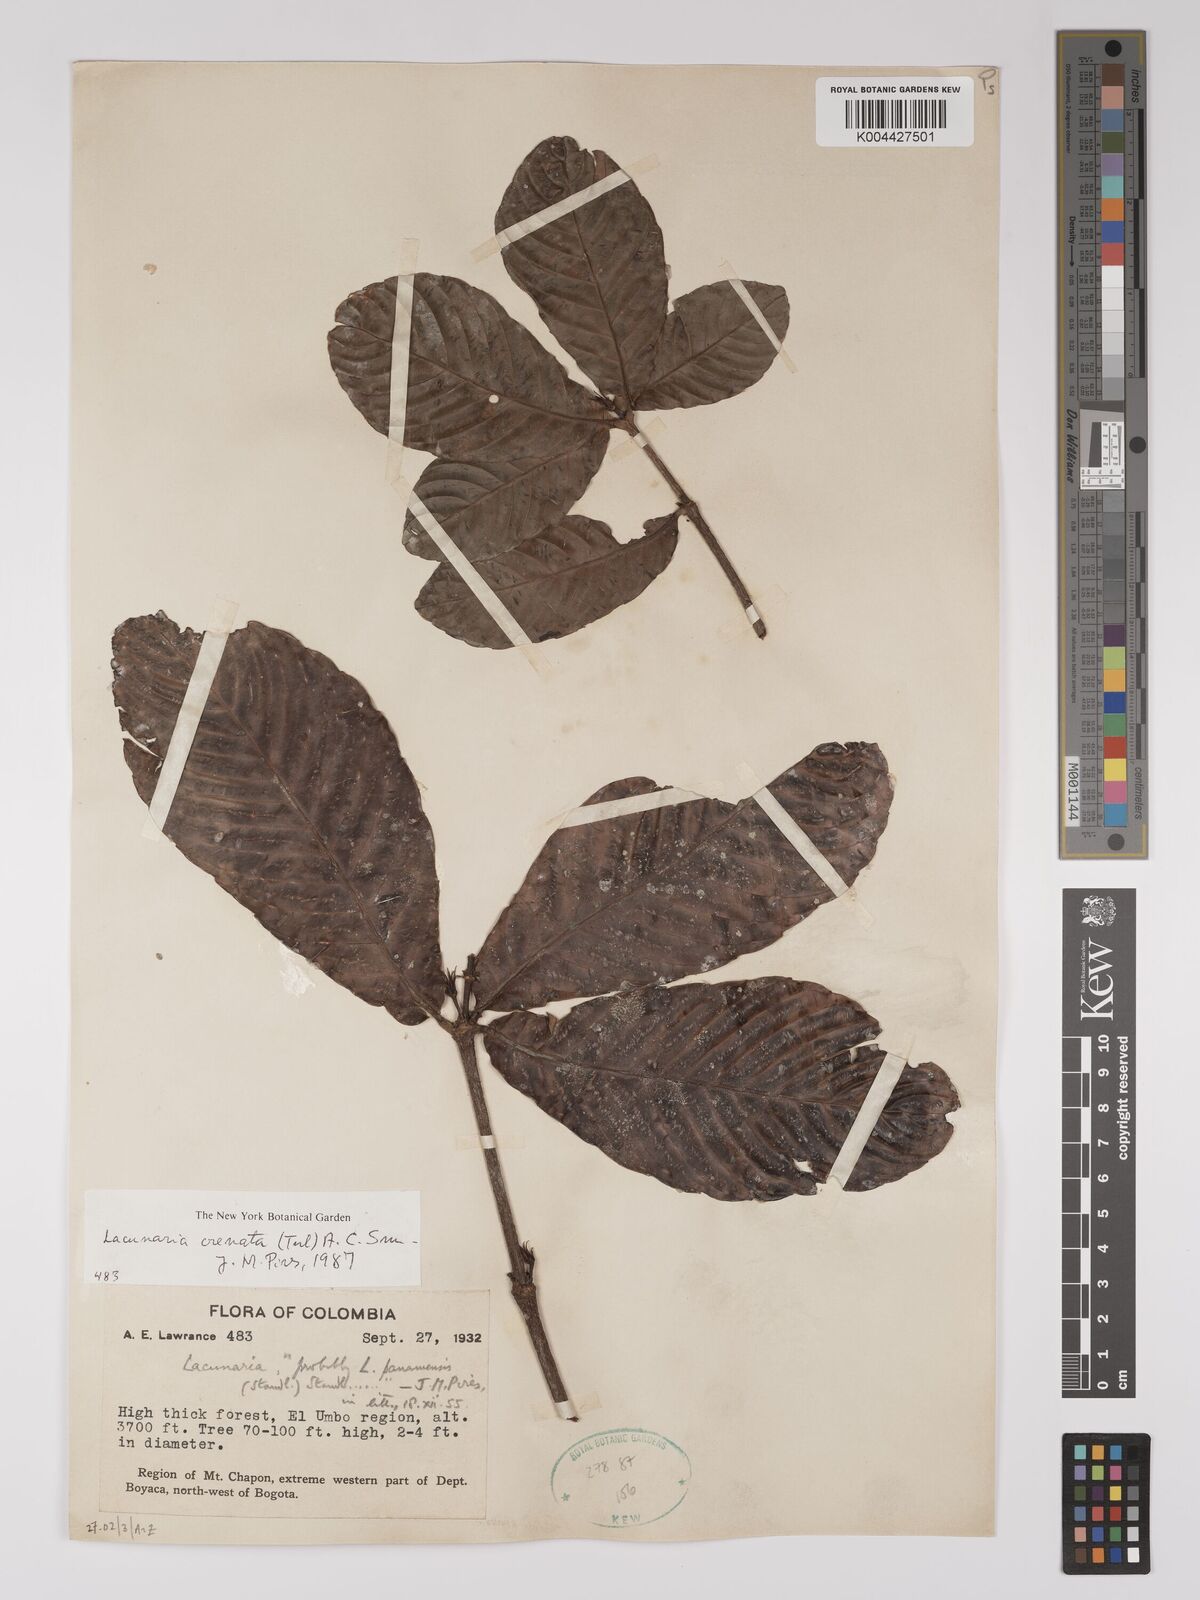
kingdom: Plantae
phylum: Tracheophyta
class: Magnoliopsida
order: Malpighiales
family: Quiinaceae
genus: Lacunaria
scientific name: Lacunaria crenata
